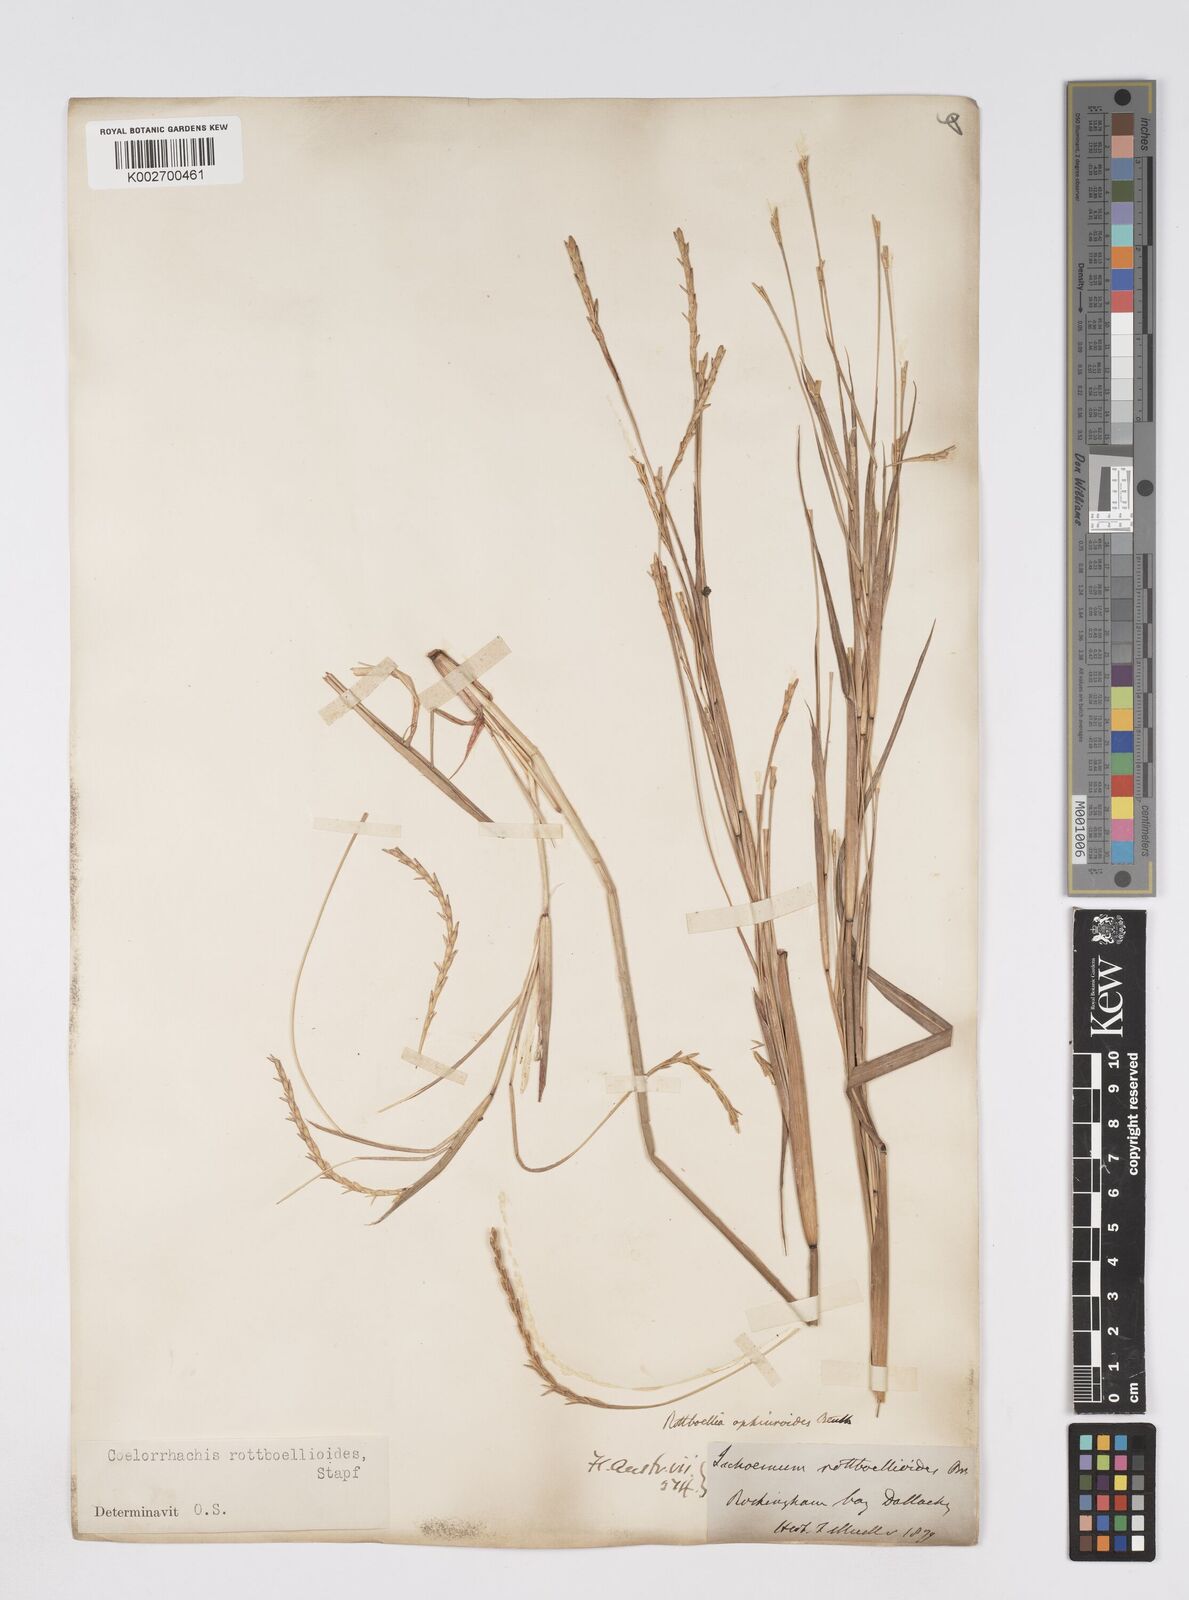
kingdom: Plantae
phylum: Tracheophyta
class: Liliopsida
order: Poales
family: Poaceae
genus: Rottboellia
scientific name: Rottboellia rottboellioides
